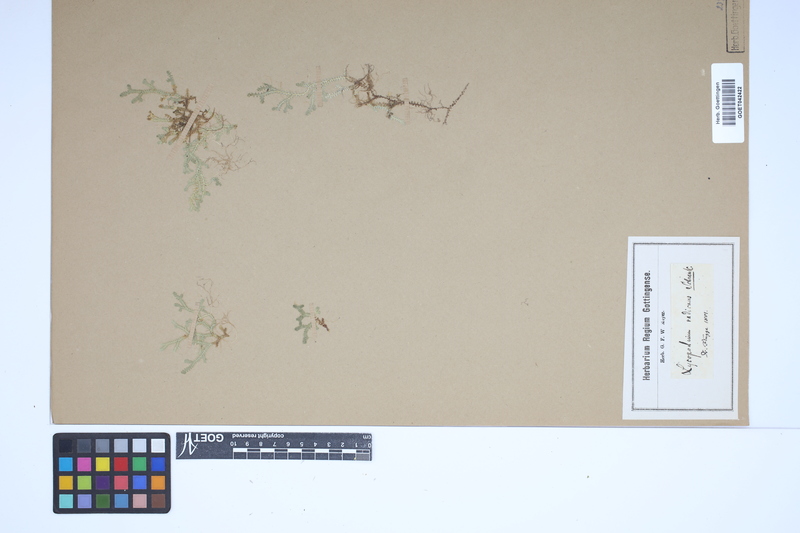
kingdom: Plantae
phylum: Tracheophyta
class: Lycopodiopsida
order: Selaginellales
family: Selaginellaceae
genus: Selaginella
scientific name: Selaginella helvetica
